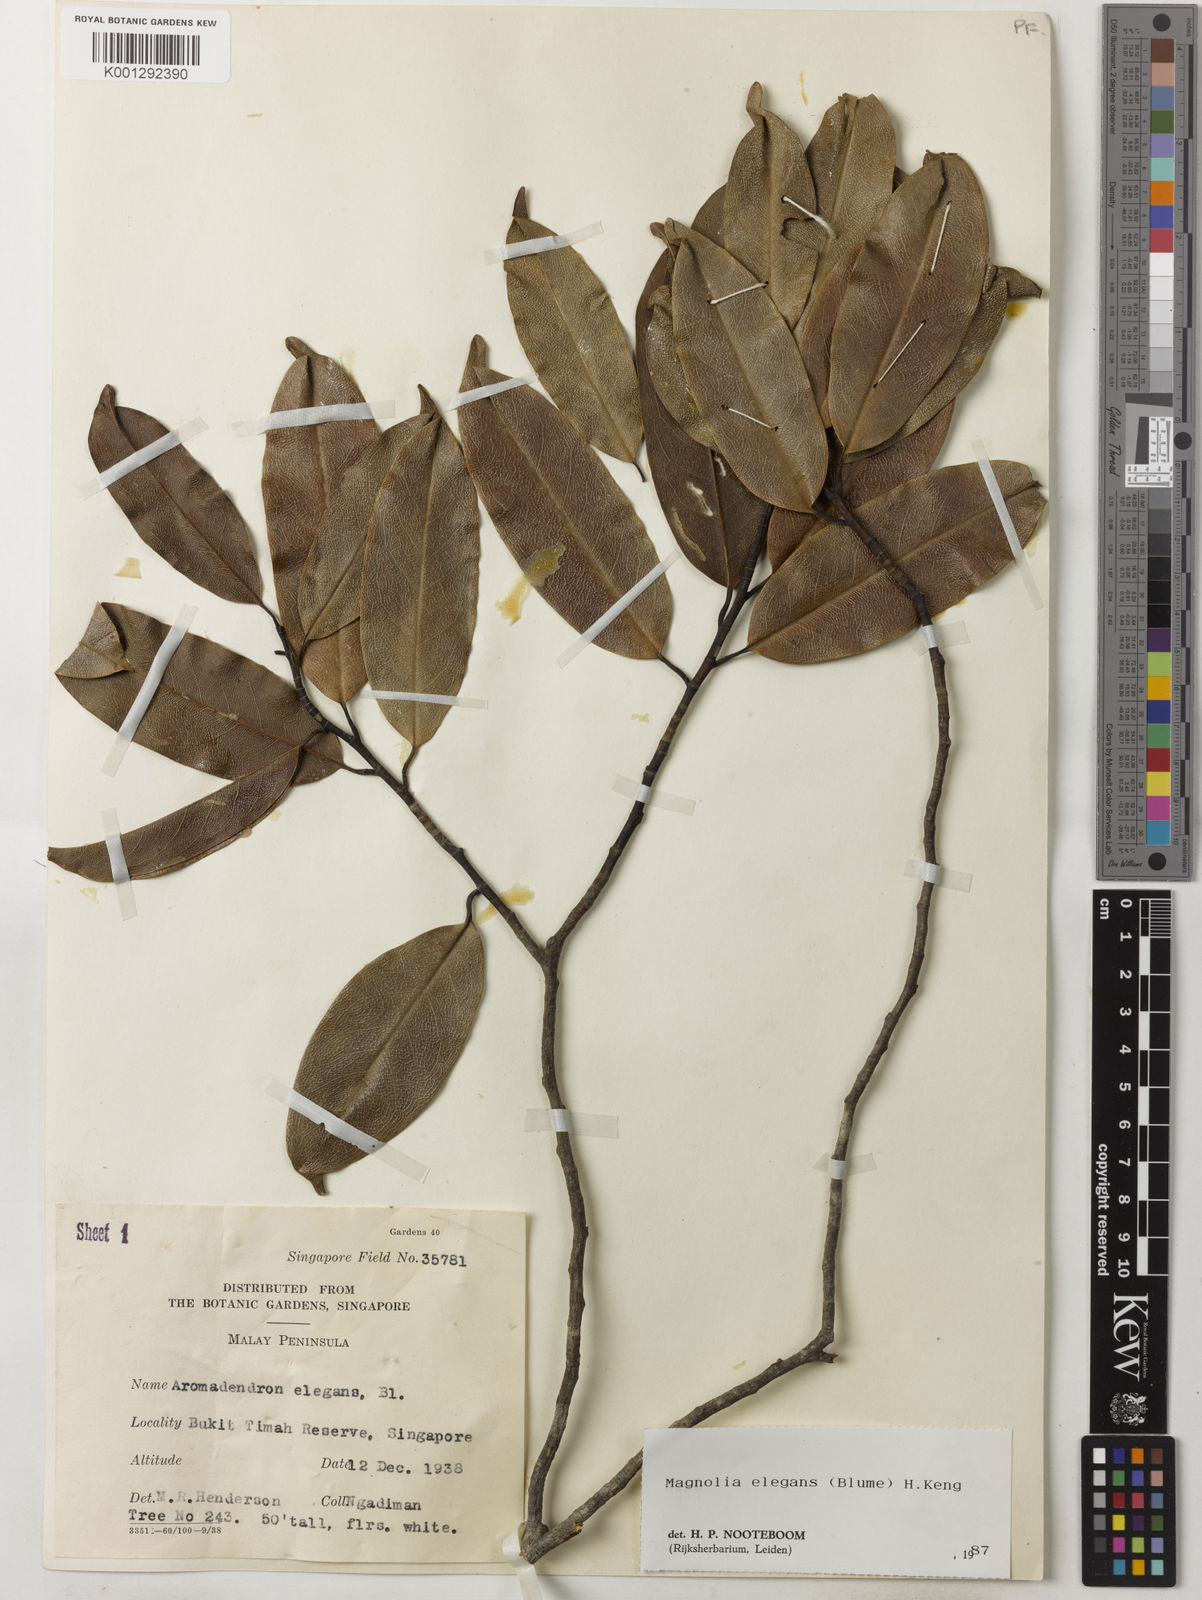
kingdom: Plantae
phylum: Tracheophyta
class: Magnoliopsida
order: Magnoliales
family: Magnoliaceae
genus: Magnolia
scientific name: Magnolia elegans
